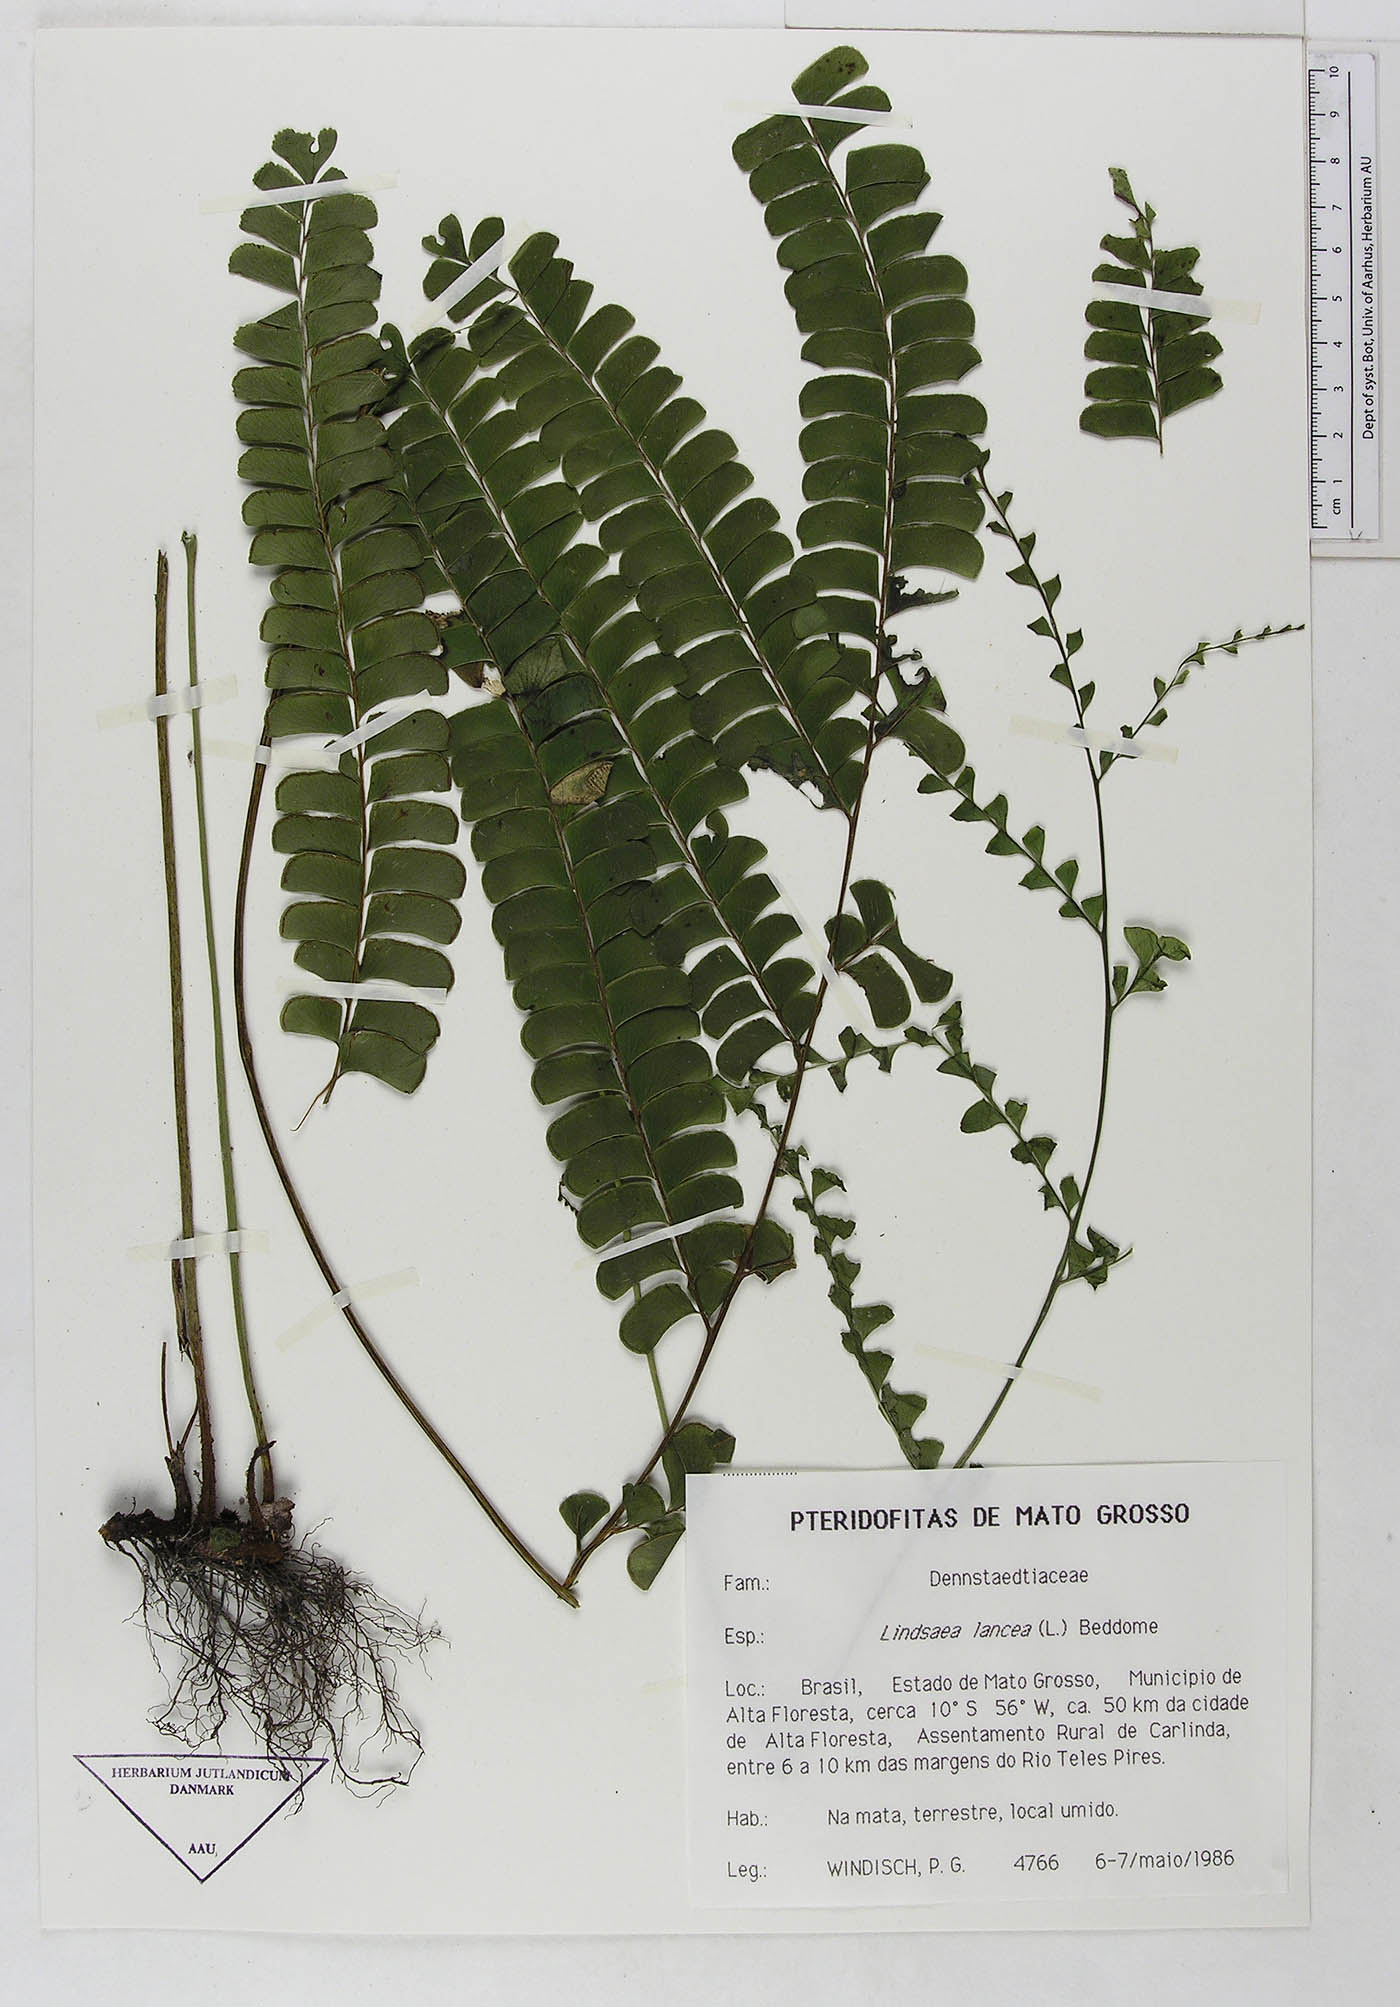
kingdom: Plantae
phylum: Tracheophyta
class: Polypodiopsida
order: Polypodiales
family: Dennstaedtiaceae
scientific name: Dennstaedtiaceae
